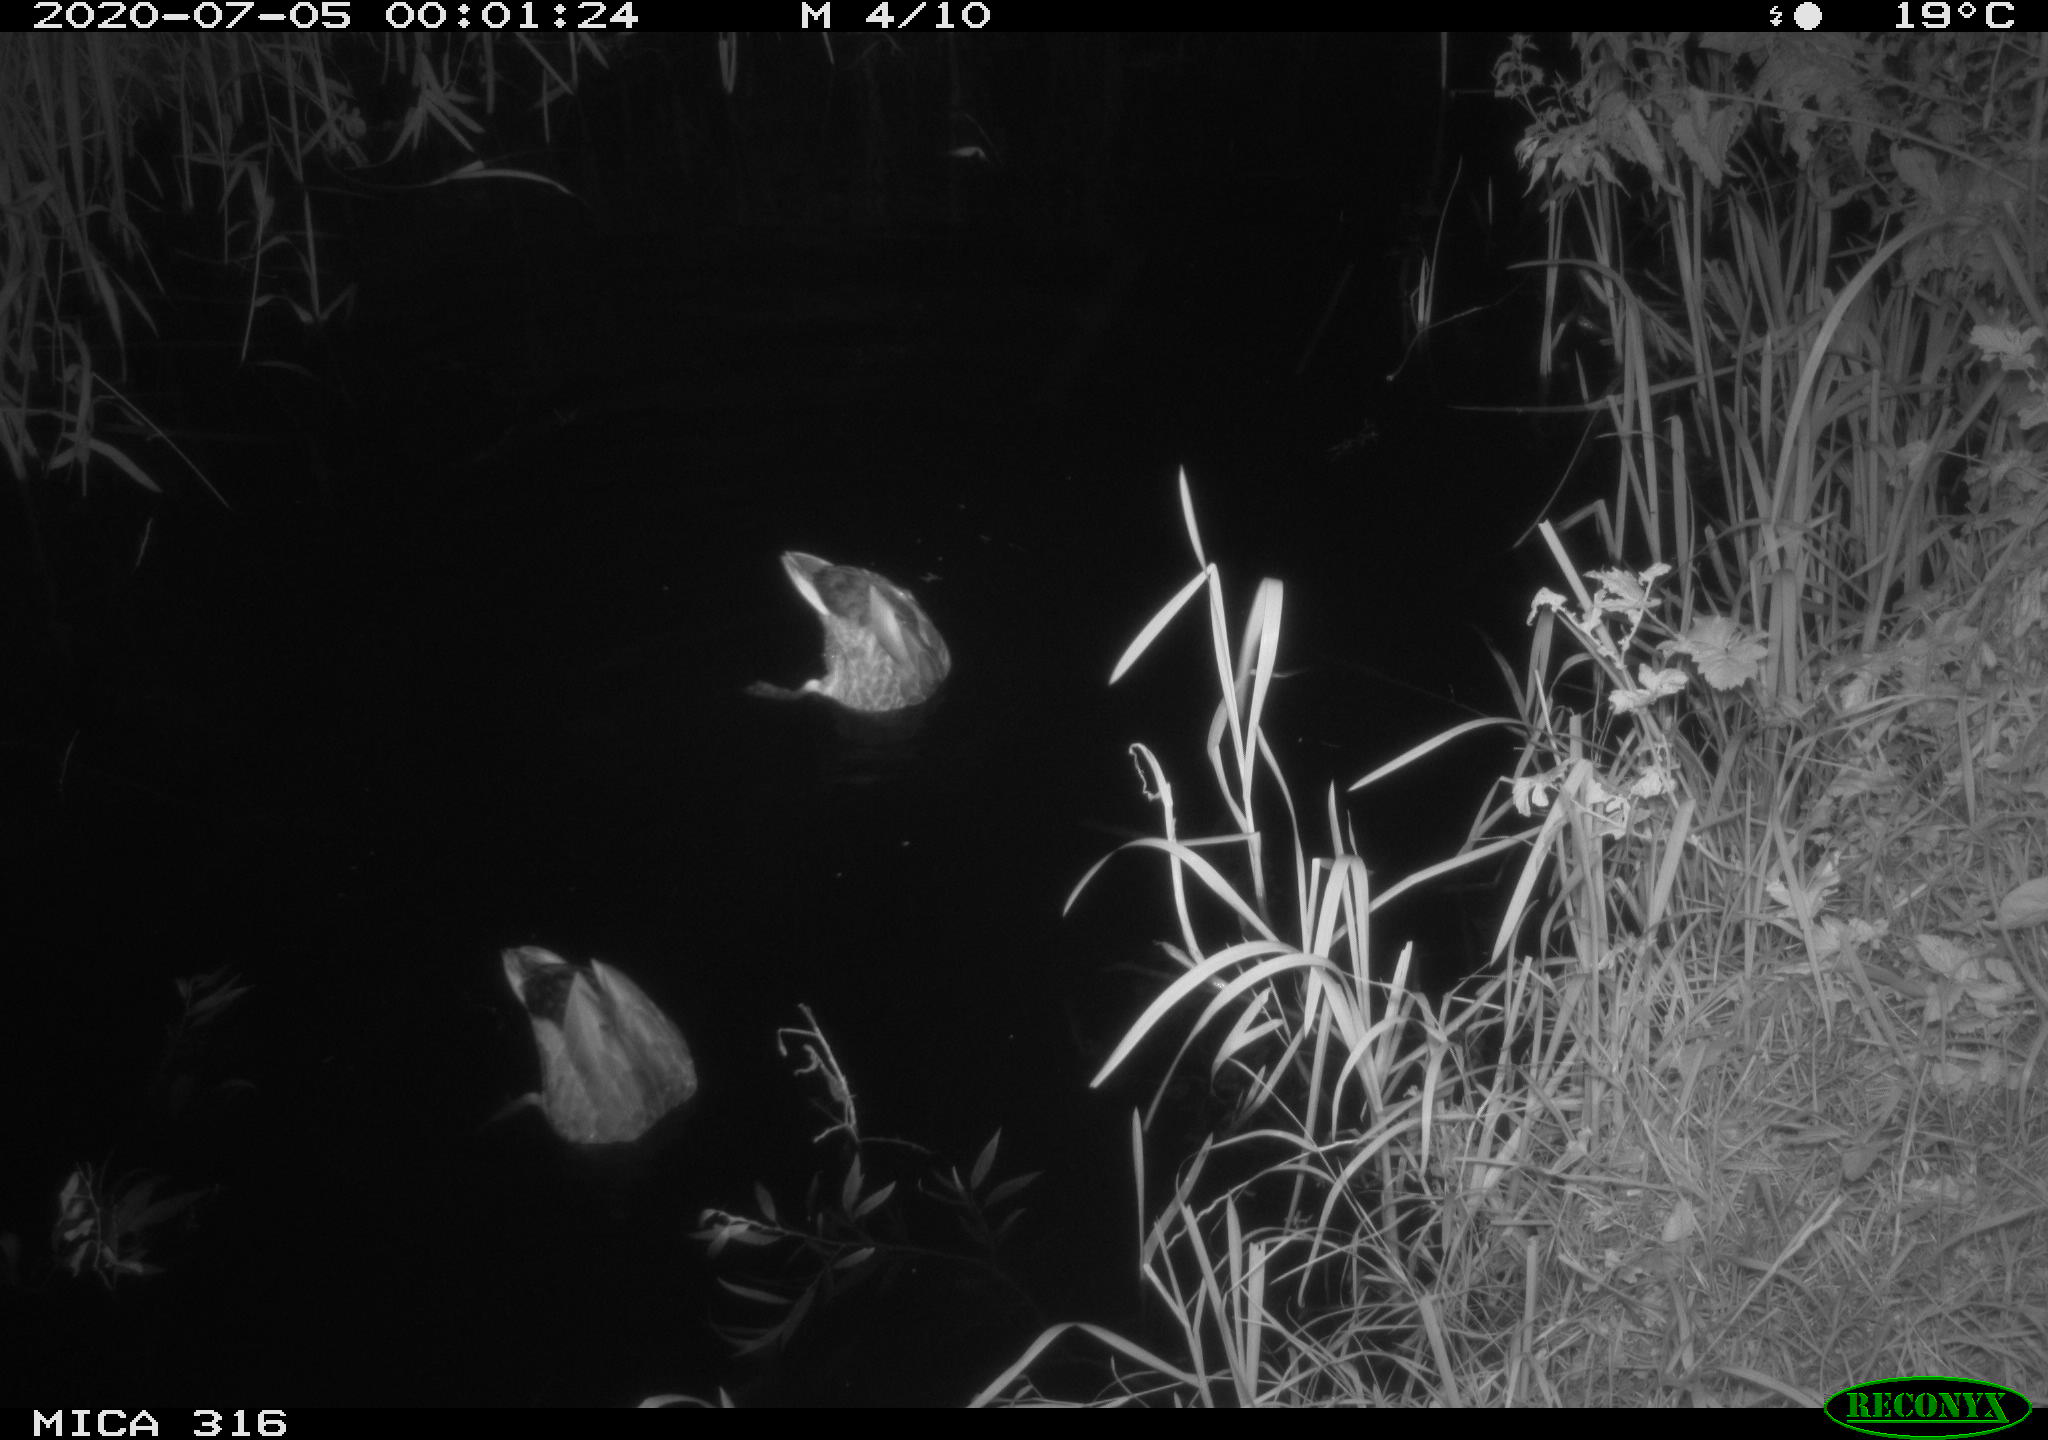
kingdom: Animalia
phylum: Chordata
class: Aves
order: Anseriformes
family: Anatidae
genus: Anas
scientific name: Anas platyrhynchos
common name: Mallard
